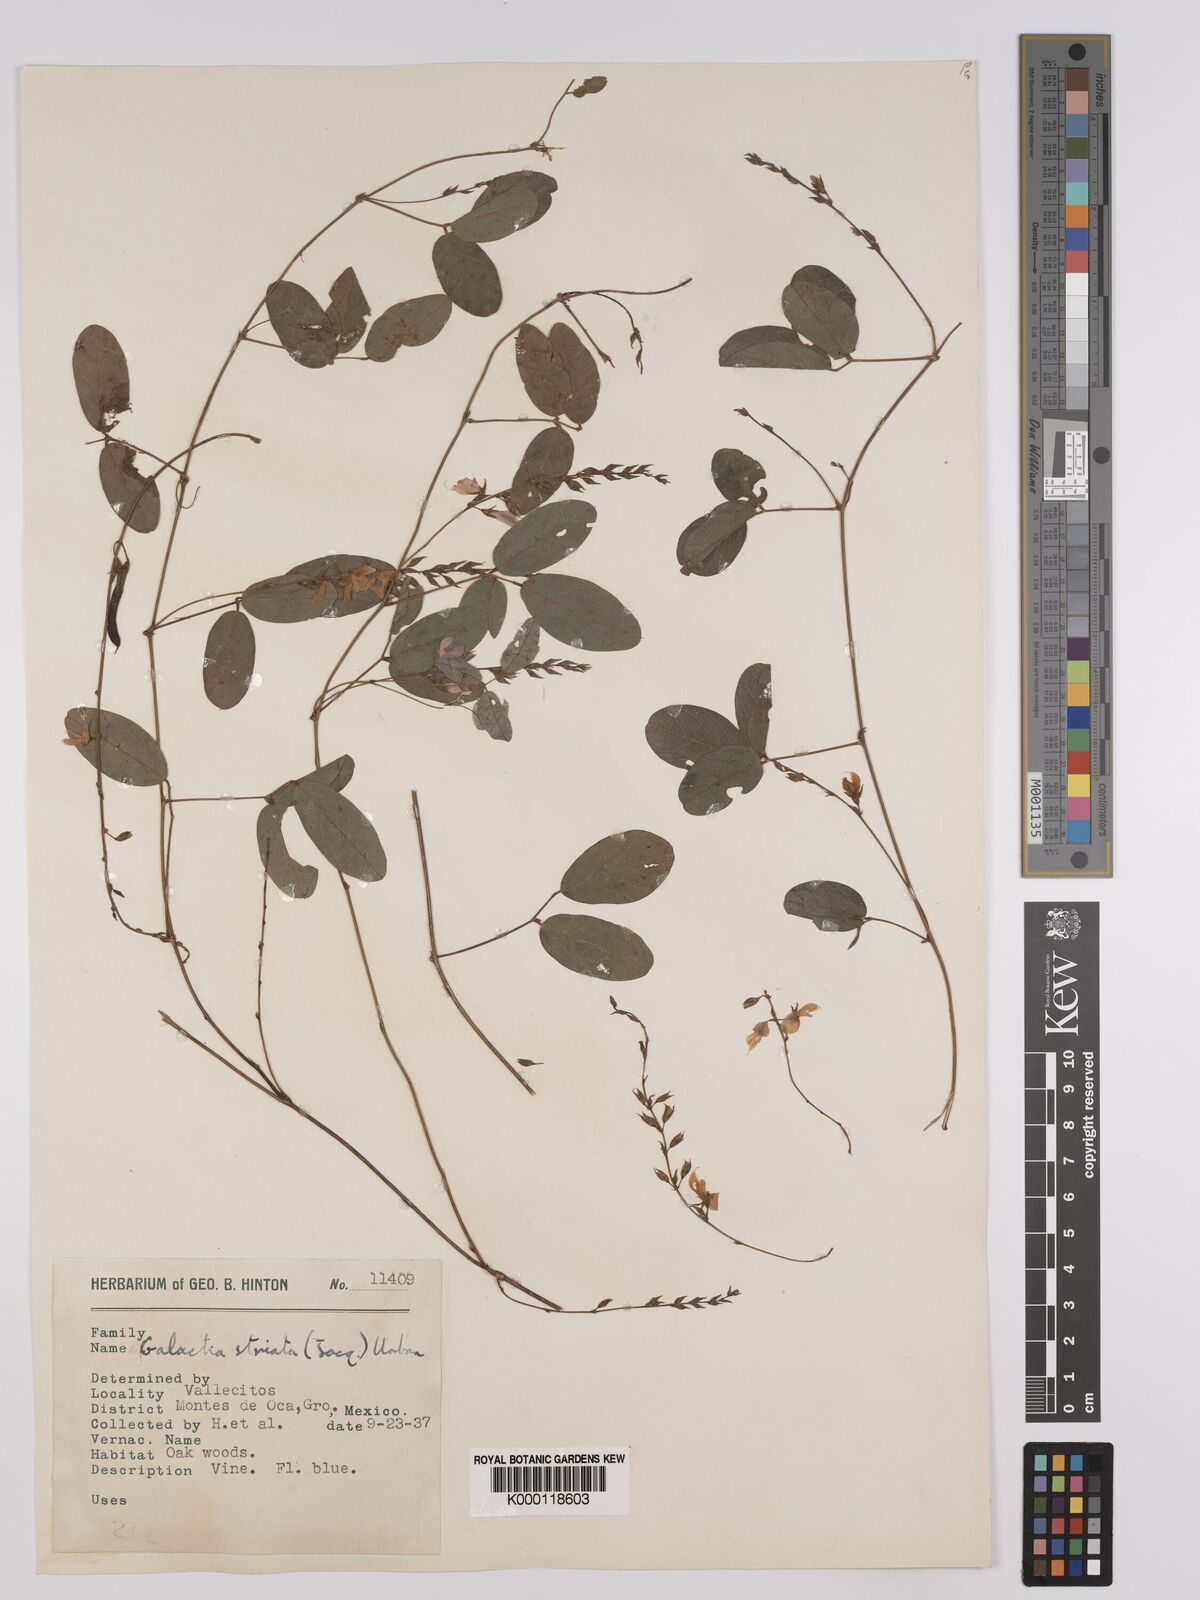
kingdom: Plantae
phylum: Tracheophyta
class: Magnoliopsida
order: Fabales
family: Fabaceae
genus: Galactia
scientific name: Galactia striata
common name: Florida hammock milkpea
